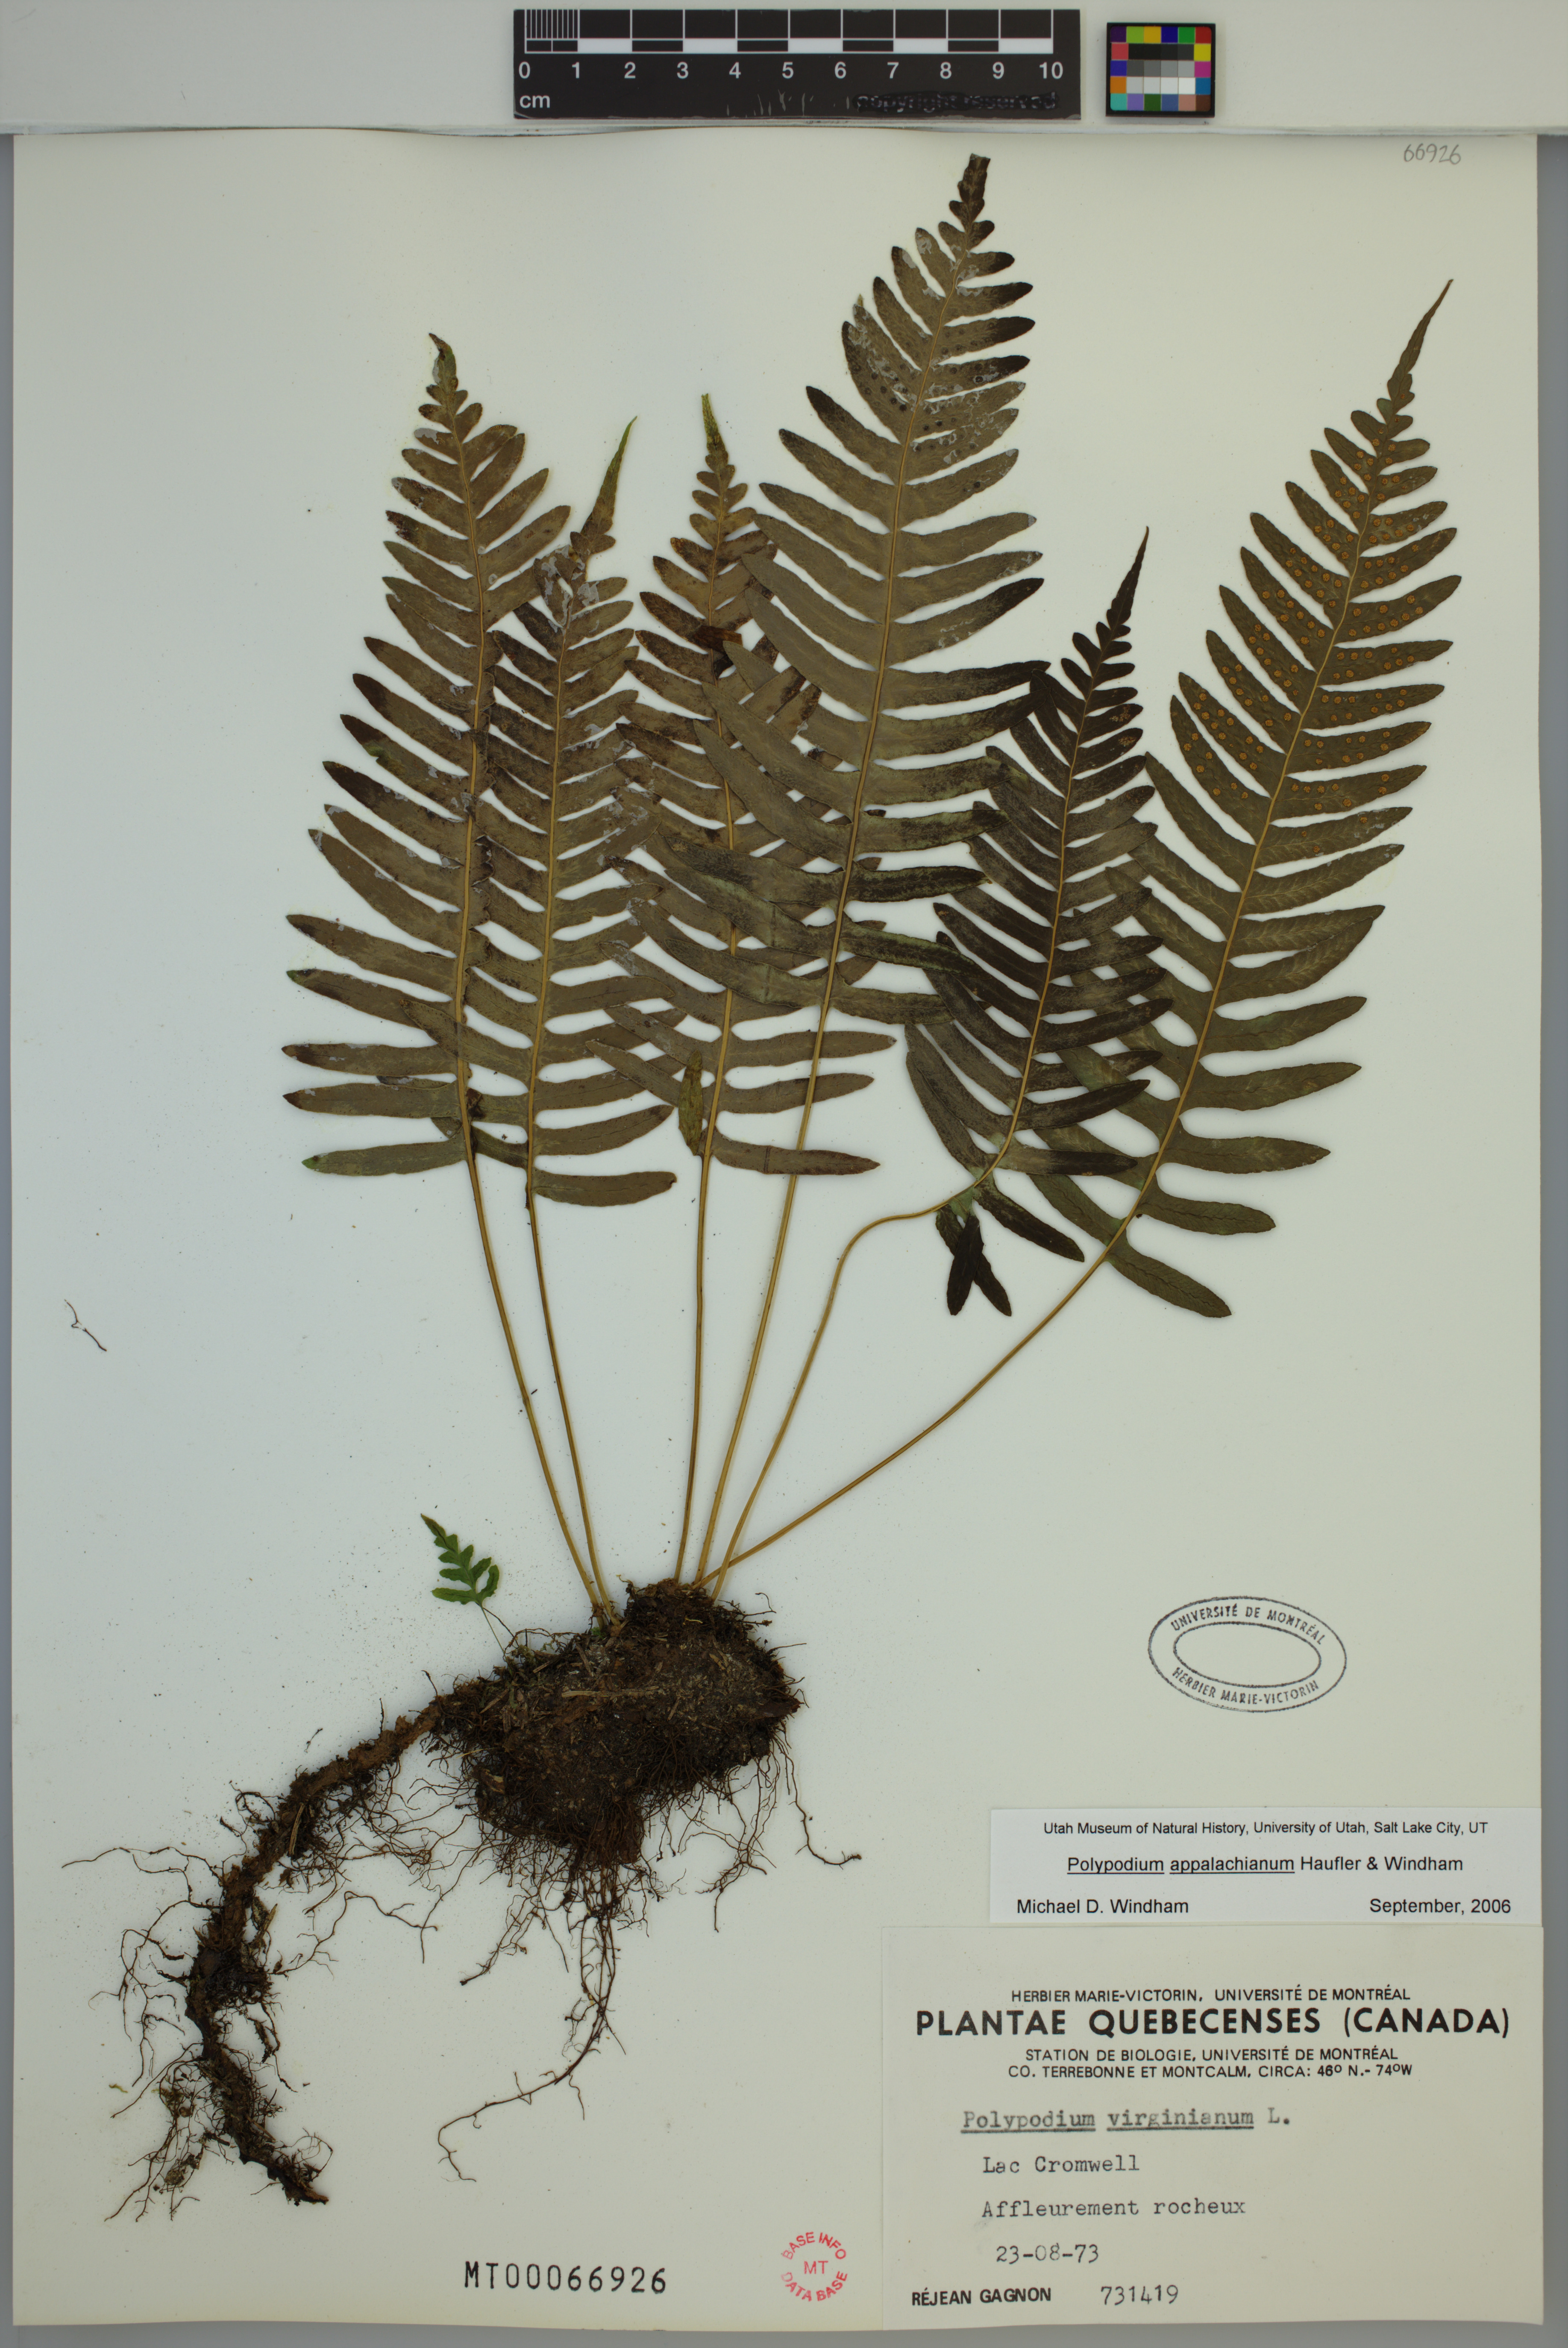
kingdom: Plantae
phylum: Tracheophyta
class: Polypodiopsida
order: Polypodiales
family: Polypodiaceae
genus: Polypodium
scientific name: Polypodium appalachianum
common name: Appalachian polypody
